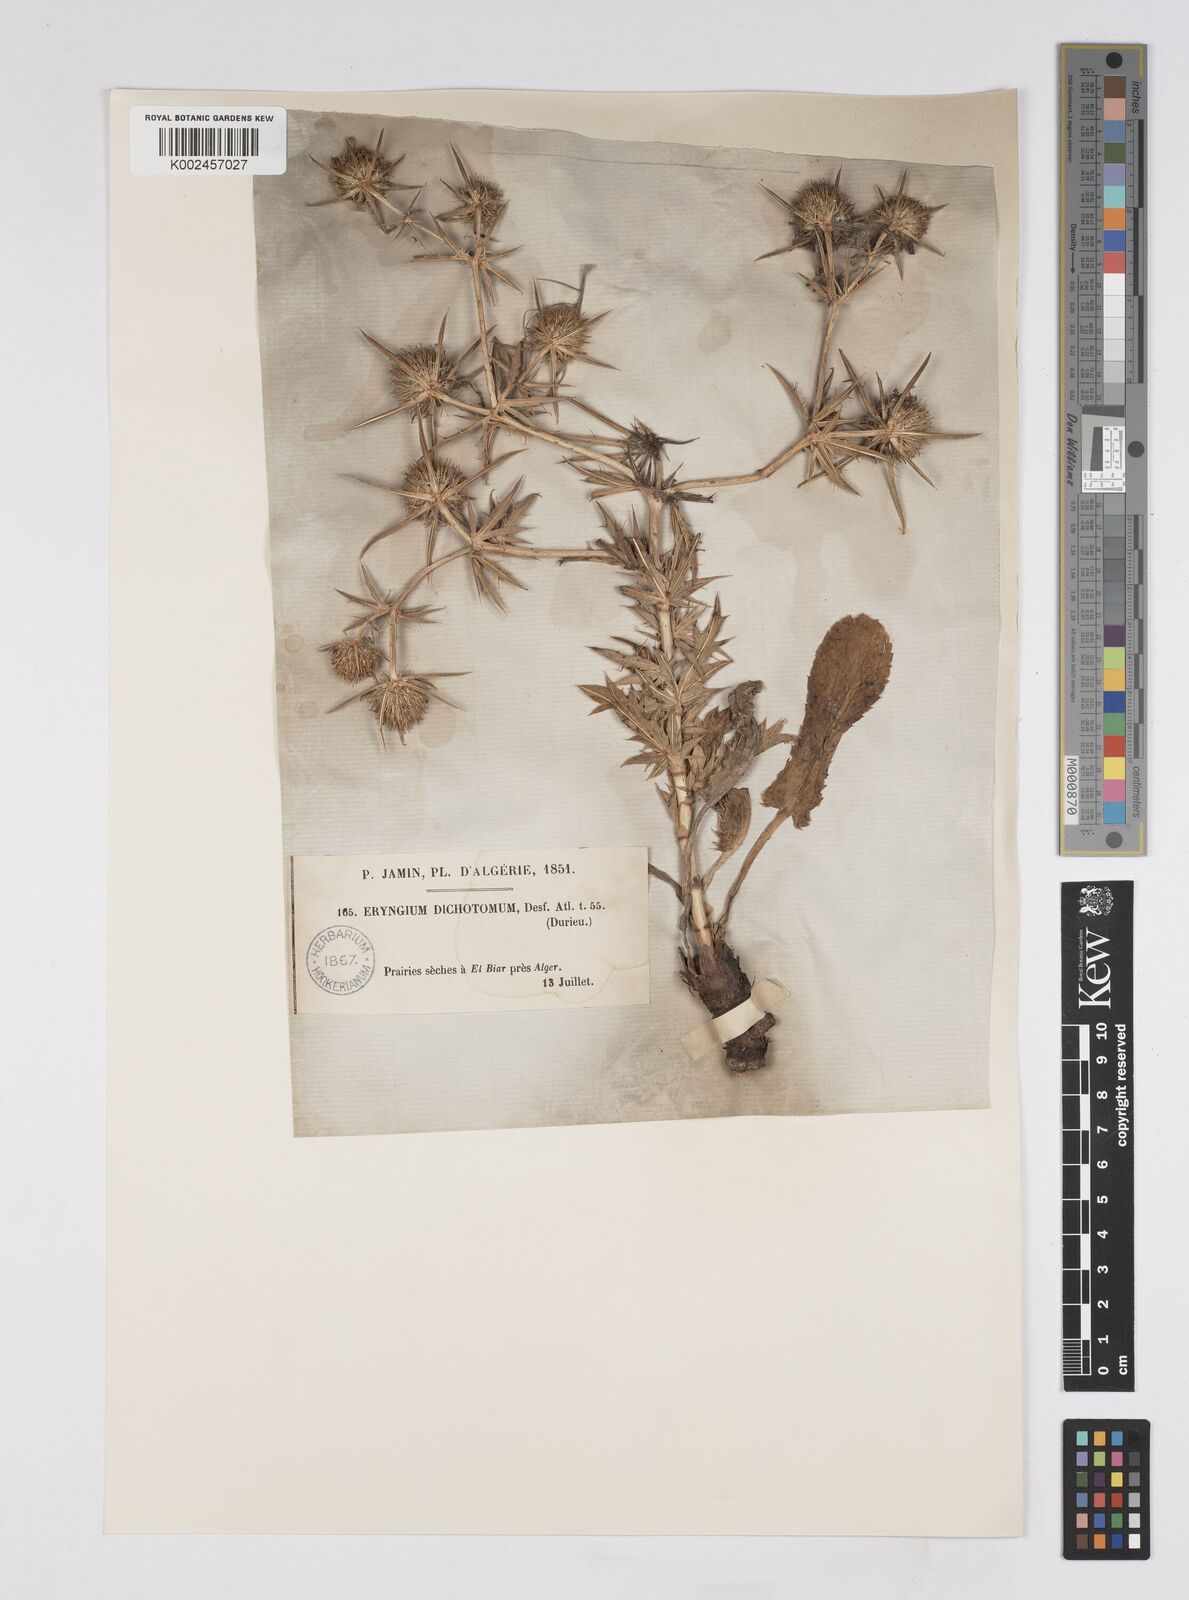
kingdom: Plantae
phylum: Tracheophyta
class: Magnoliopsida
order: Apiales
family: Apiaceae
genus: Eryngium
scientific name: Eryngium dichotomum
